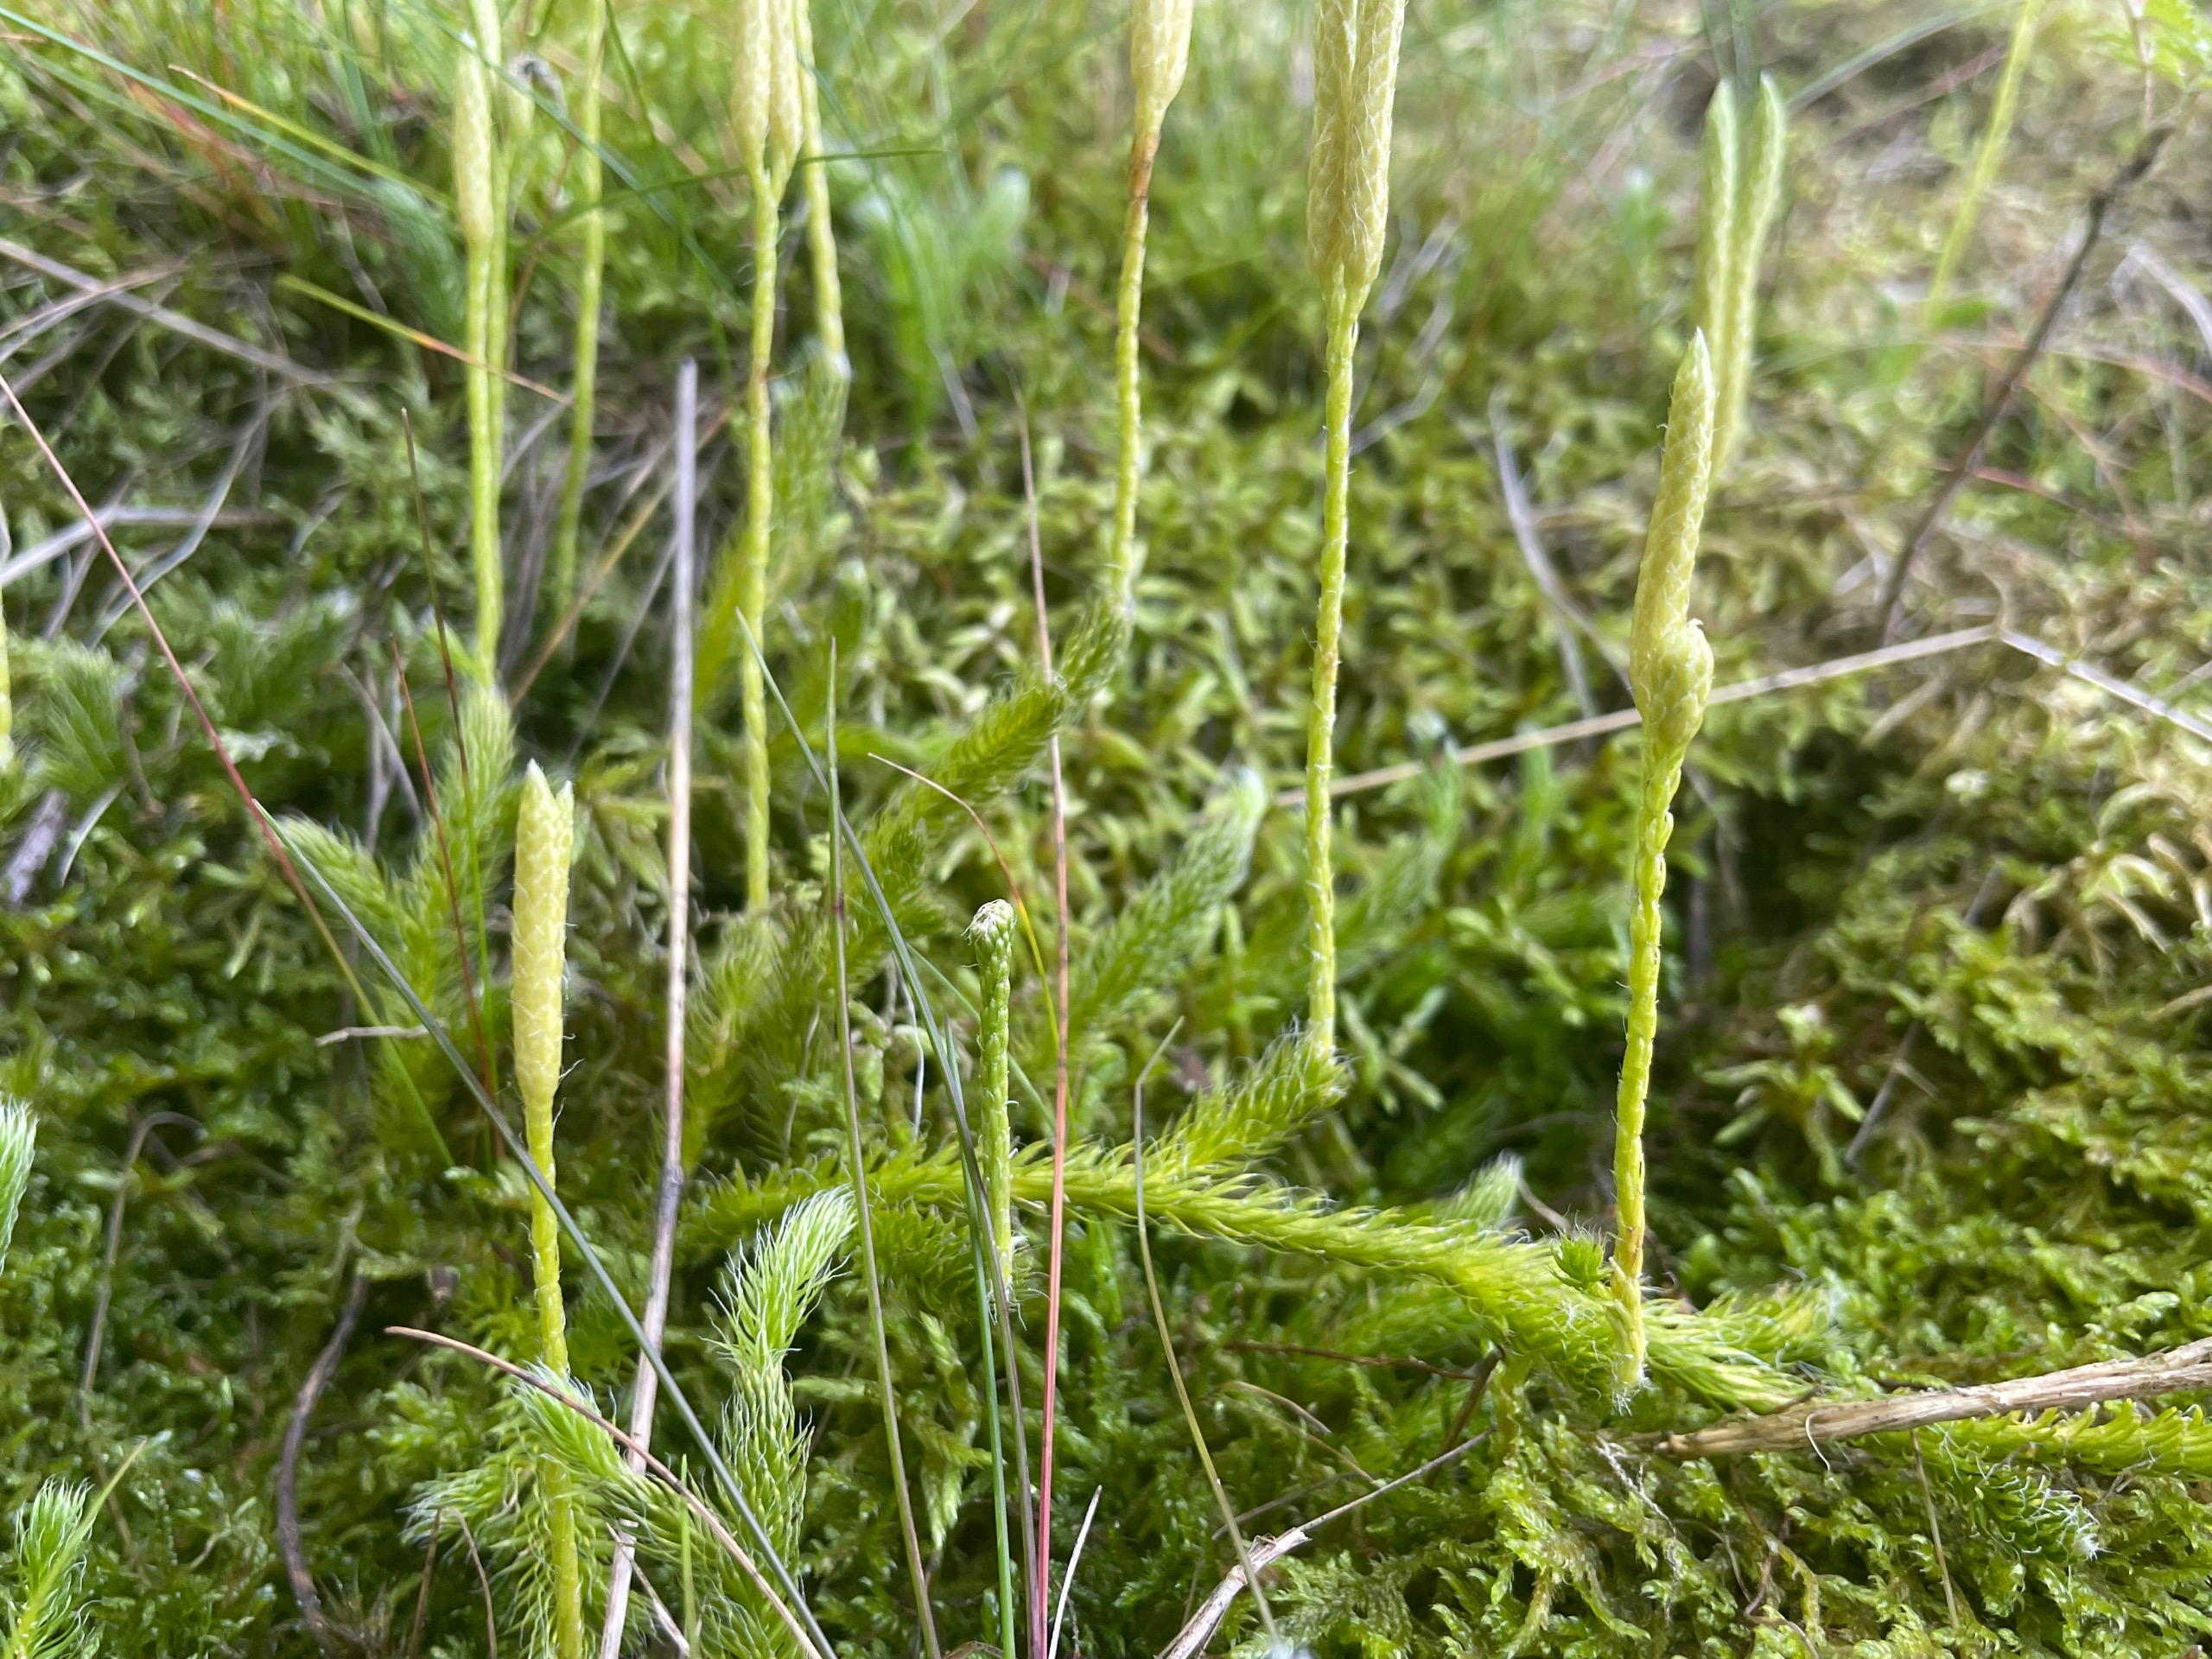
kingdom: Plantae
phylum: Tracheophyta
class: Lycopodiopsida
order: Lycopodiales
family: Lycopodiaceae
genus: Lycopodium
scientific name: Lycopodium clavatum
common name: Almindelig ulvefod
